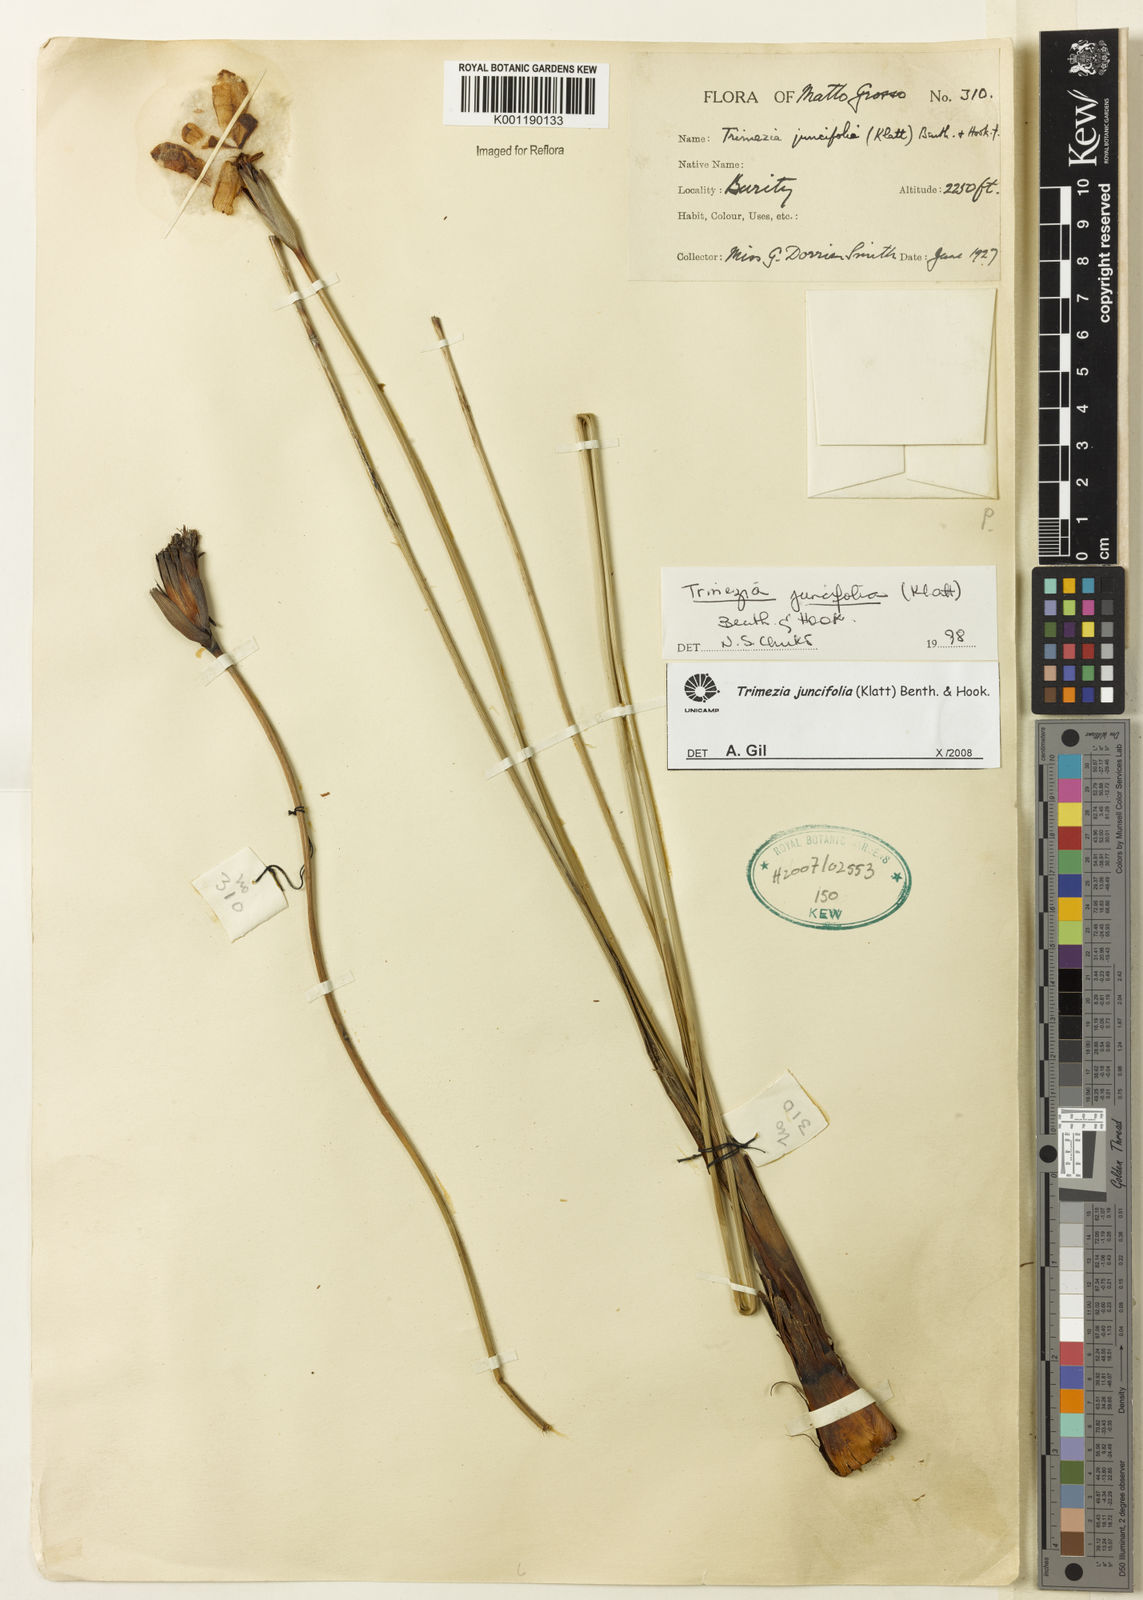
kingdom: Plantae
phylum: Tracheophyta
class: Liliopsida
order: Asparagales
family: Iridaceae
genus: Trimezia
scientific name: Trimezia juncifolia
